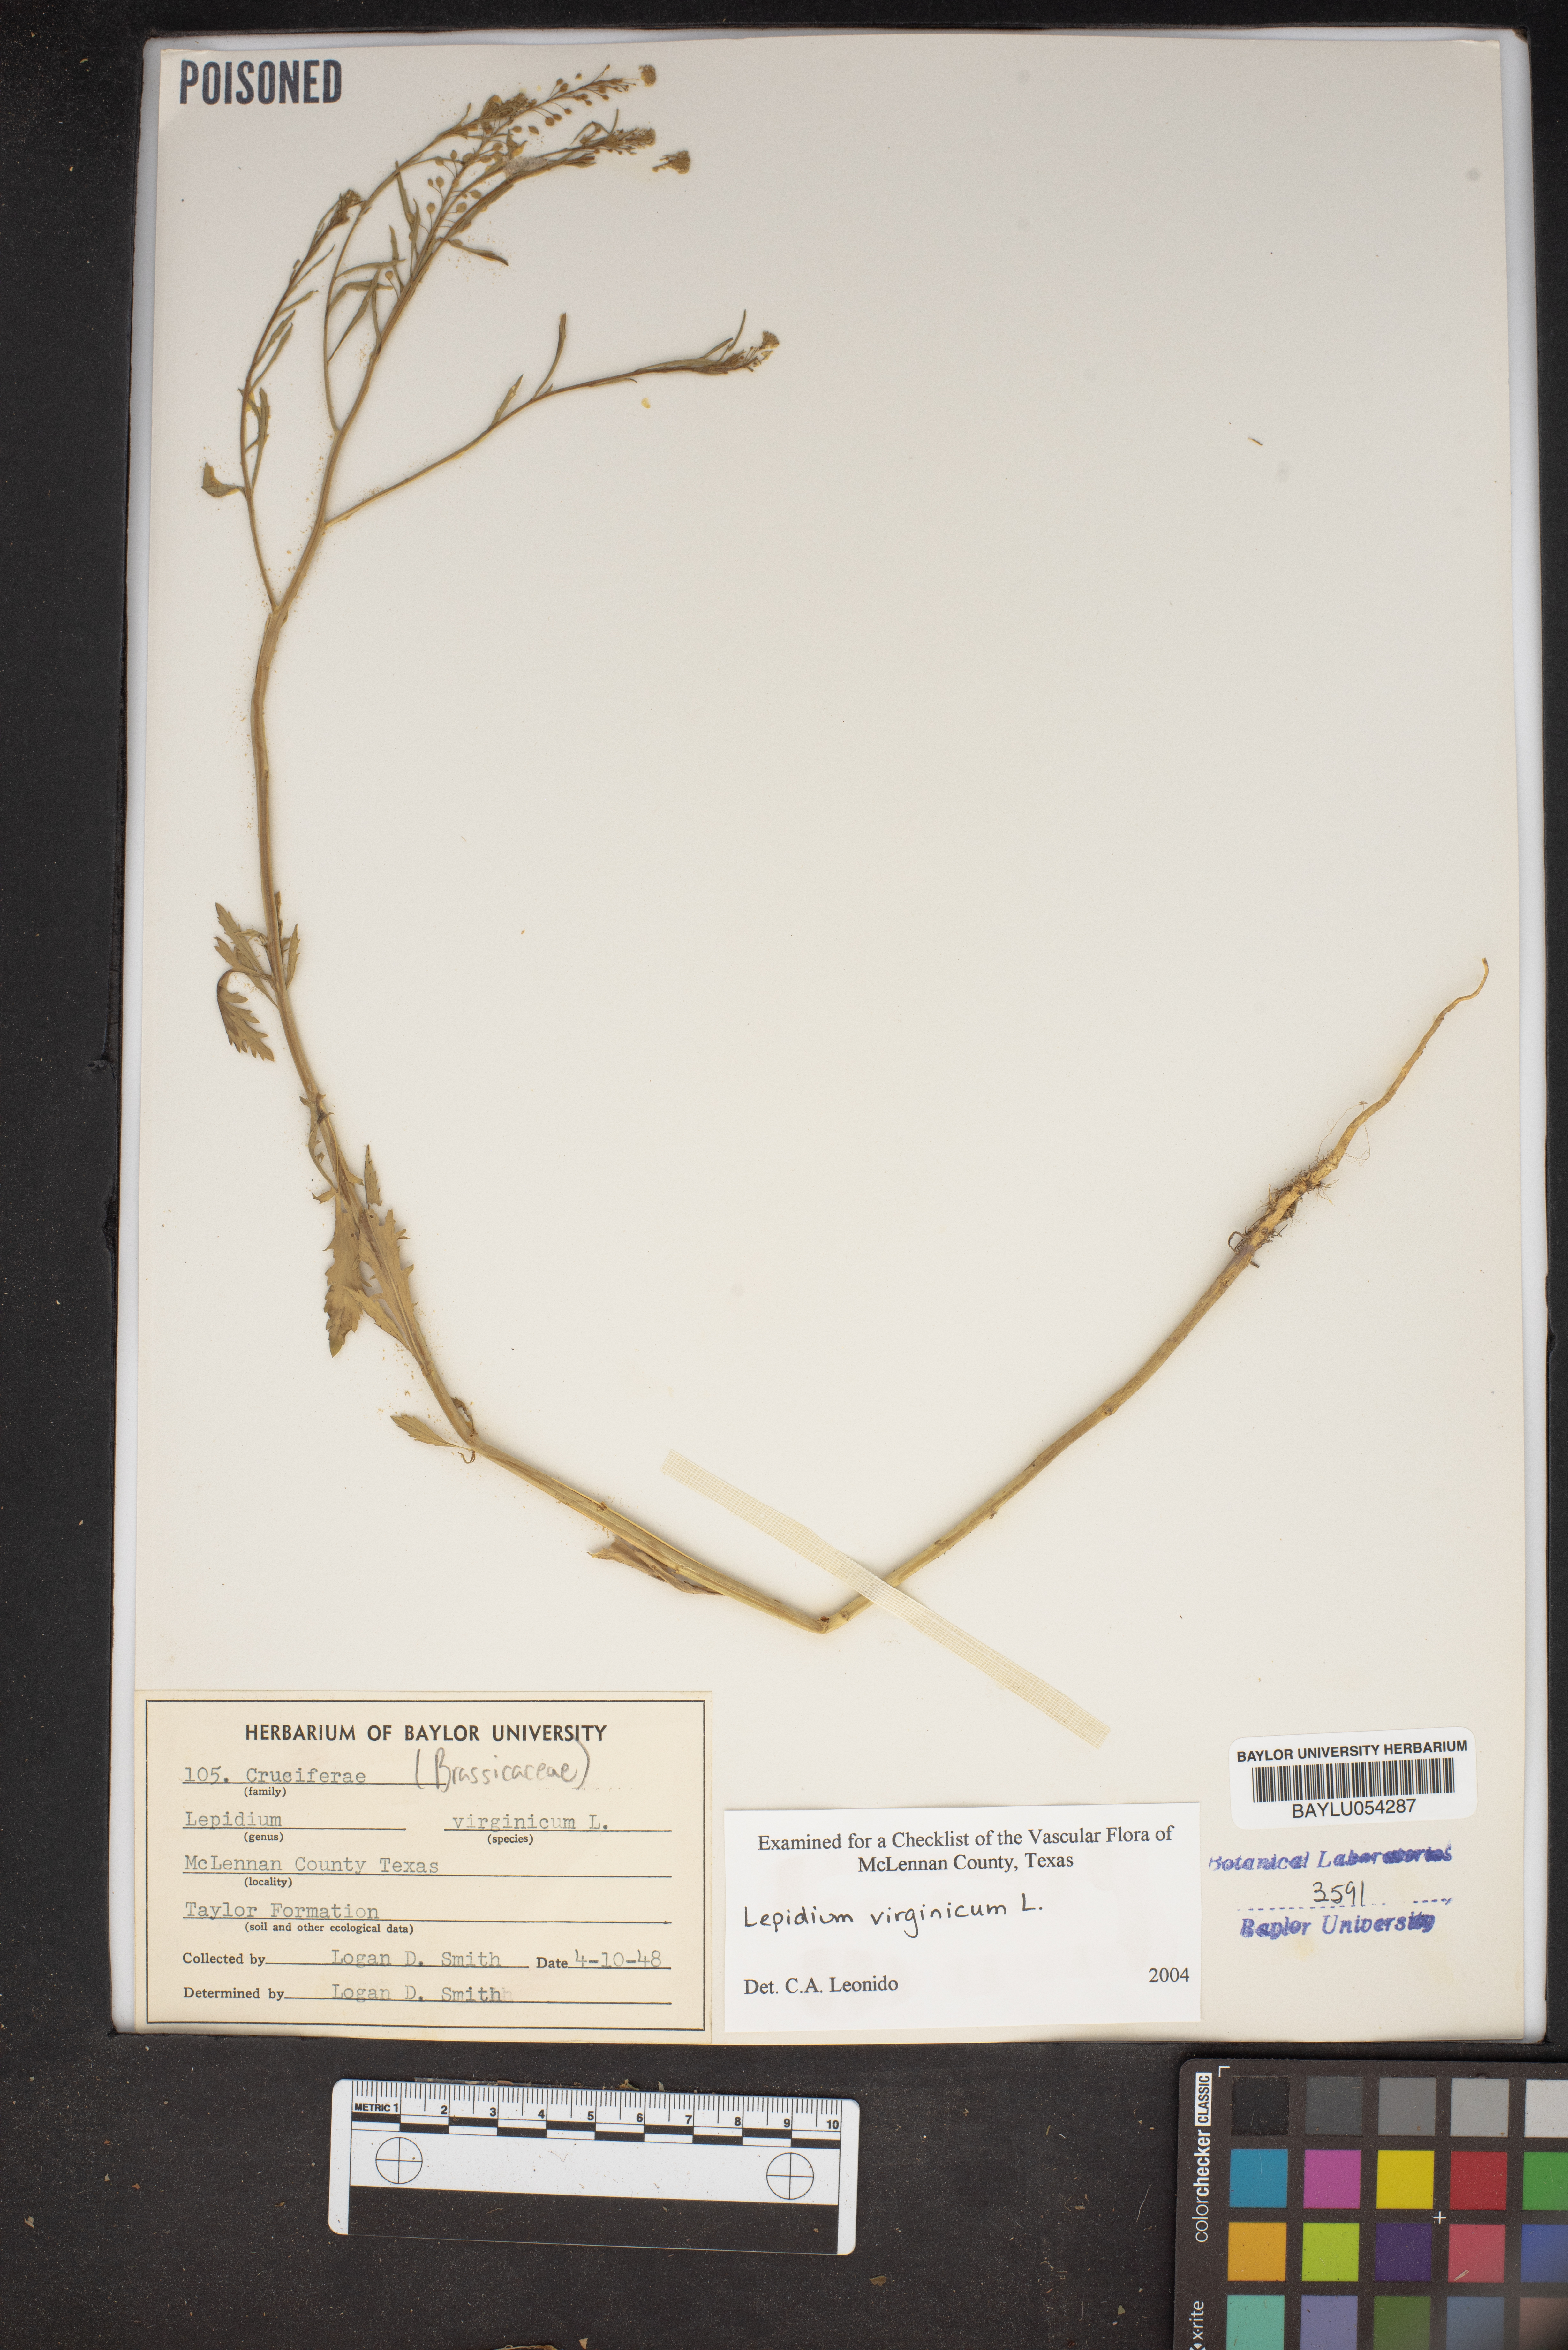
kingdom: Plantae
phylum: Tracheophyta
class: Magnoliopsida
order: Brassicales
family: Brassicaceae
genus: Lepidium
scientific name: Lepidium virginicum
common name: Least pepperwort
